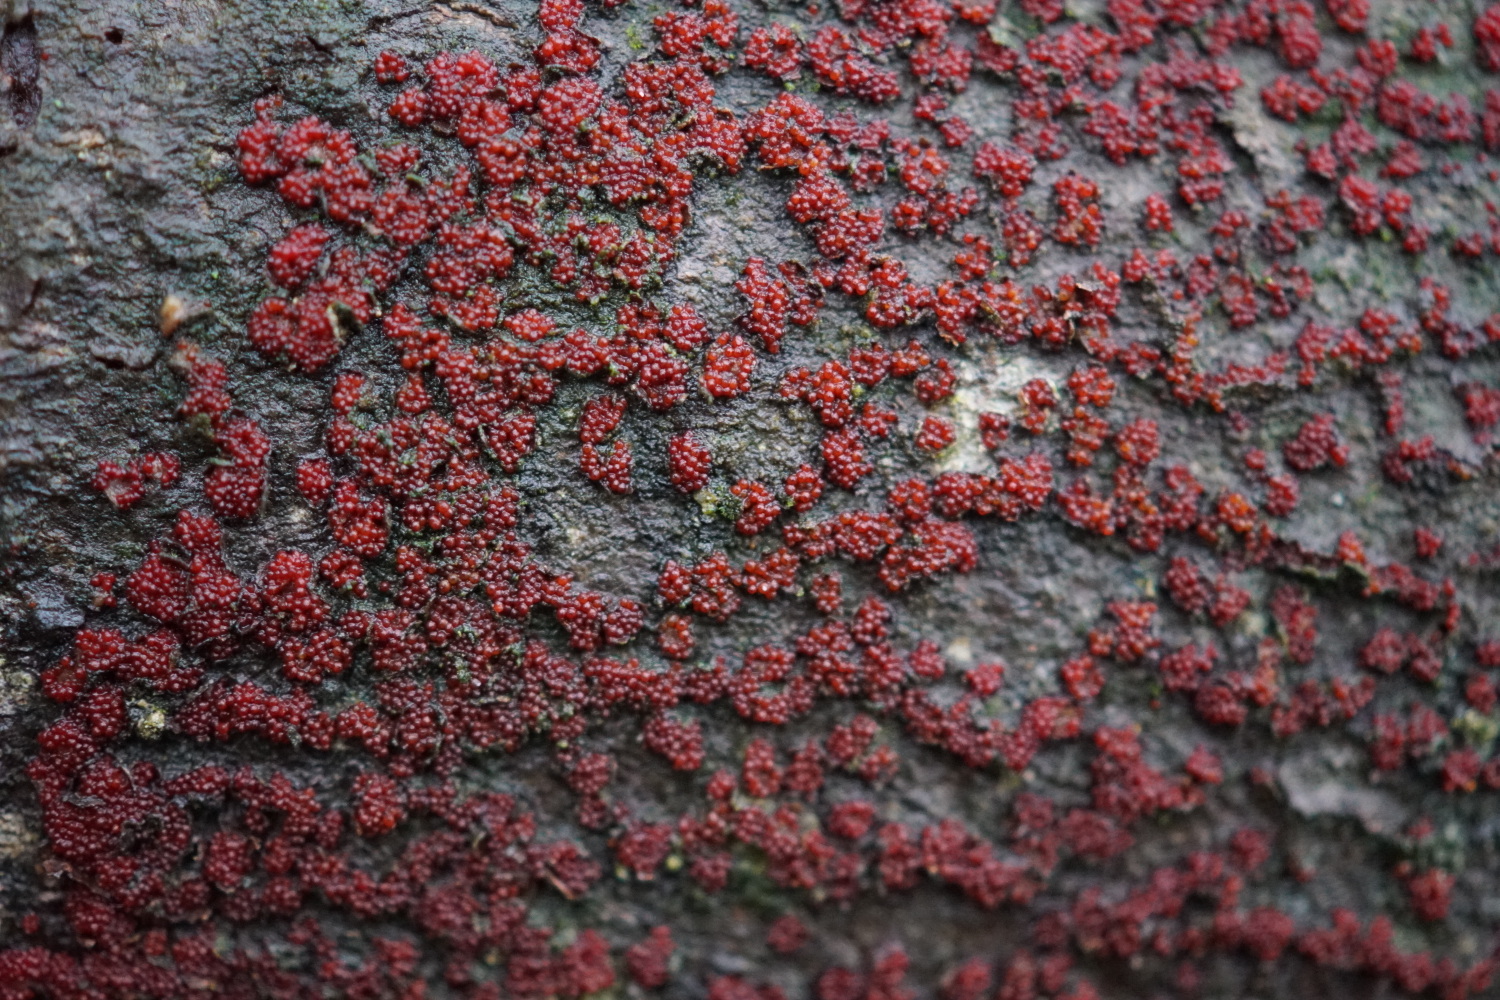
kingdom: Fungi
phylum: Ascomycota
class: Sordariomycetes
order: Hypocreales
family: Nectriaceae
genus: Nectria
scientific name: Nectria cinnabarina
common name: almindelig cinnobersvamp
